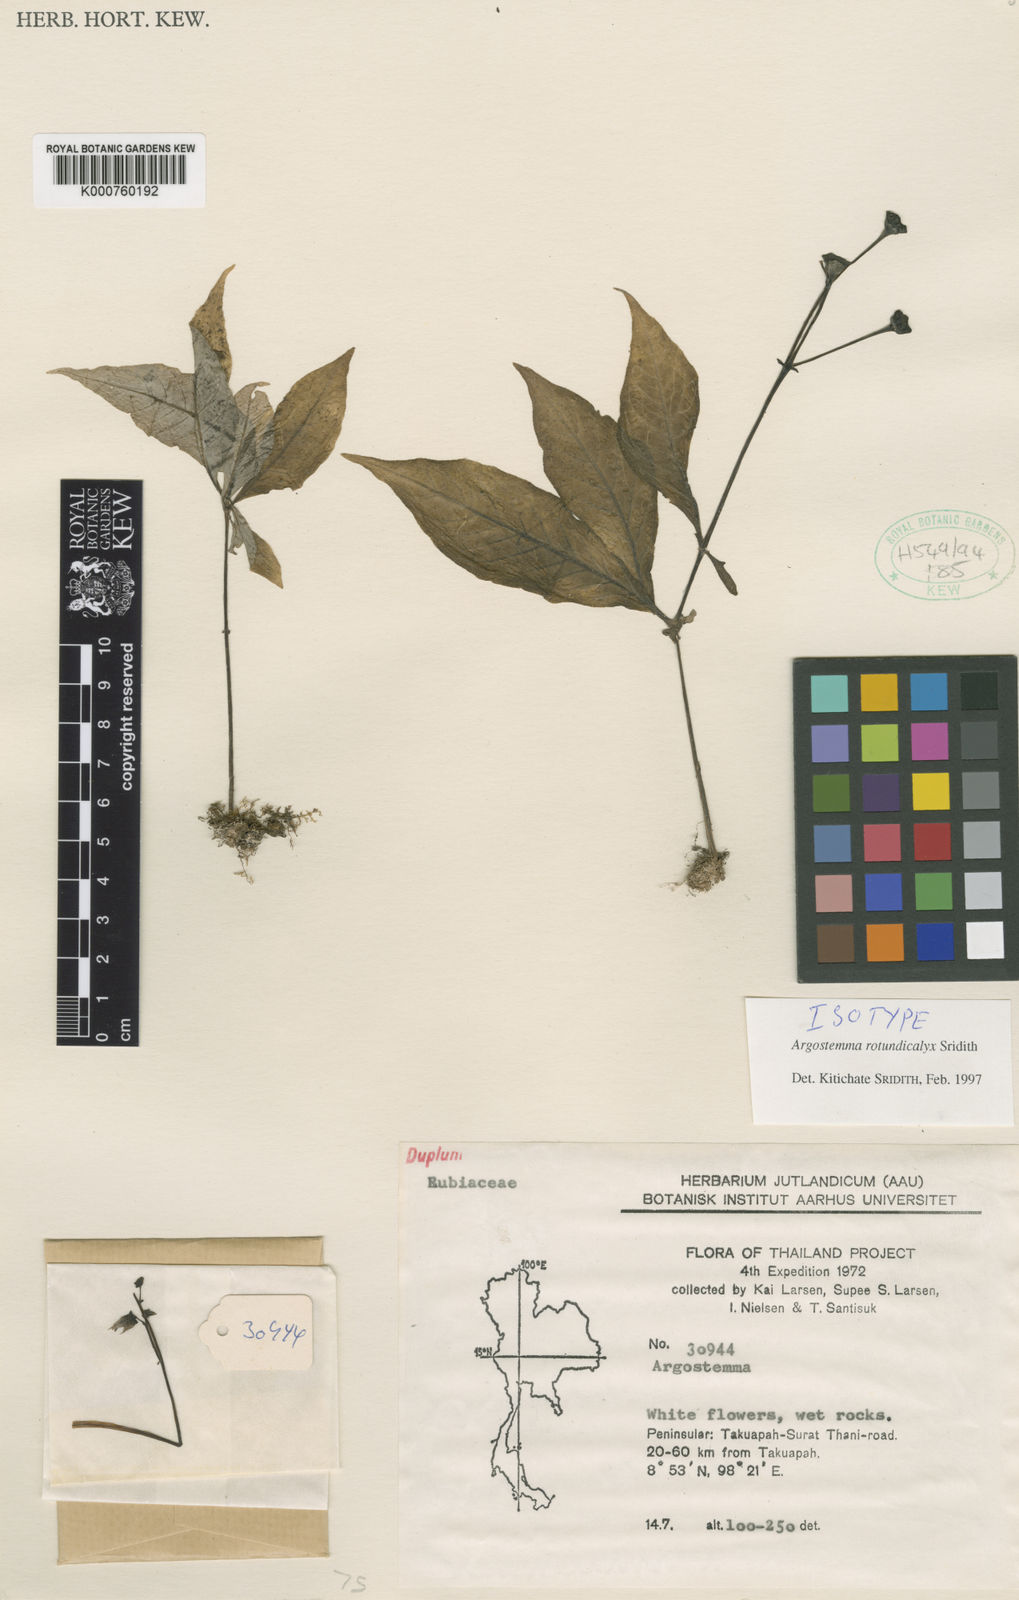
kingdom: Plantae
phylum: Tracheophyta
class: Magnoliopsida
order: Gentianales
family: Rubiaceae
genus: Argostemma
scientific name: Argostemma rotundicalyx
